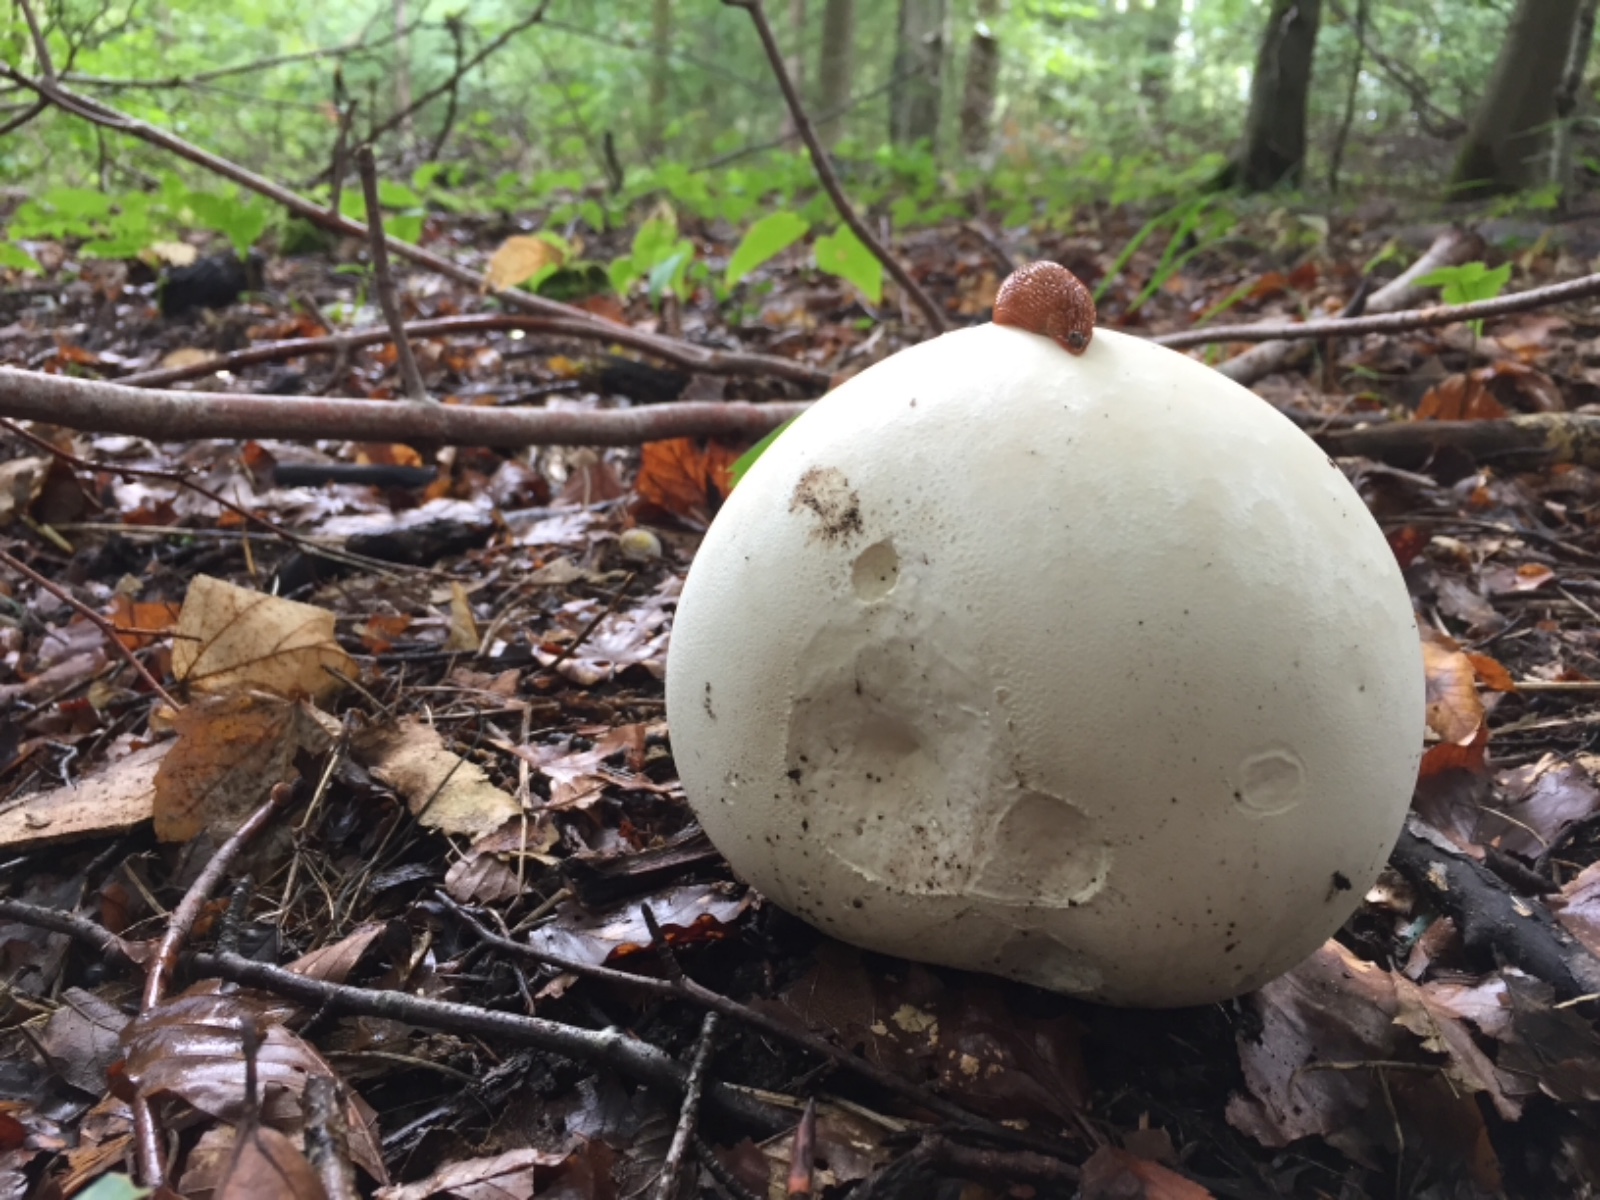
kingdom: Fungi
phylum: Basidiomycota
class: Agaricomycetes
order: Agaricales
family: Lycoperdaceae
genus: Calvatia
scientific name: Calvatia gigantea
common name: kæmpestøvbold
